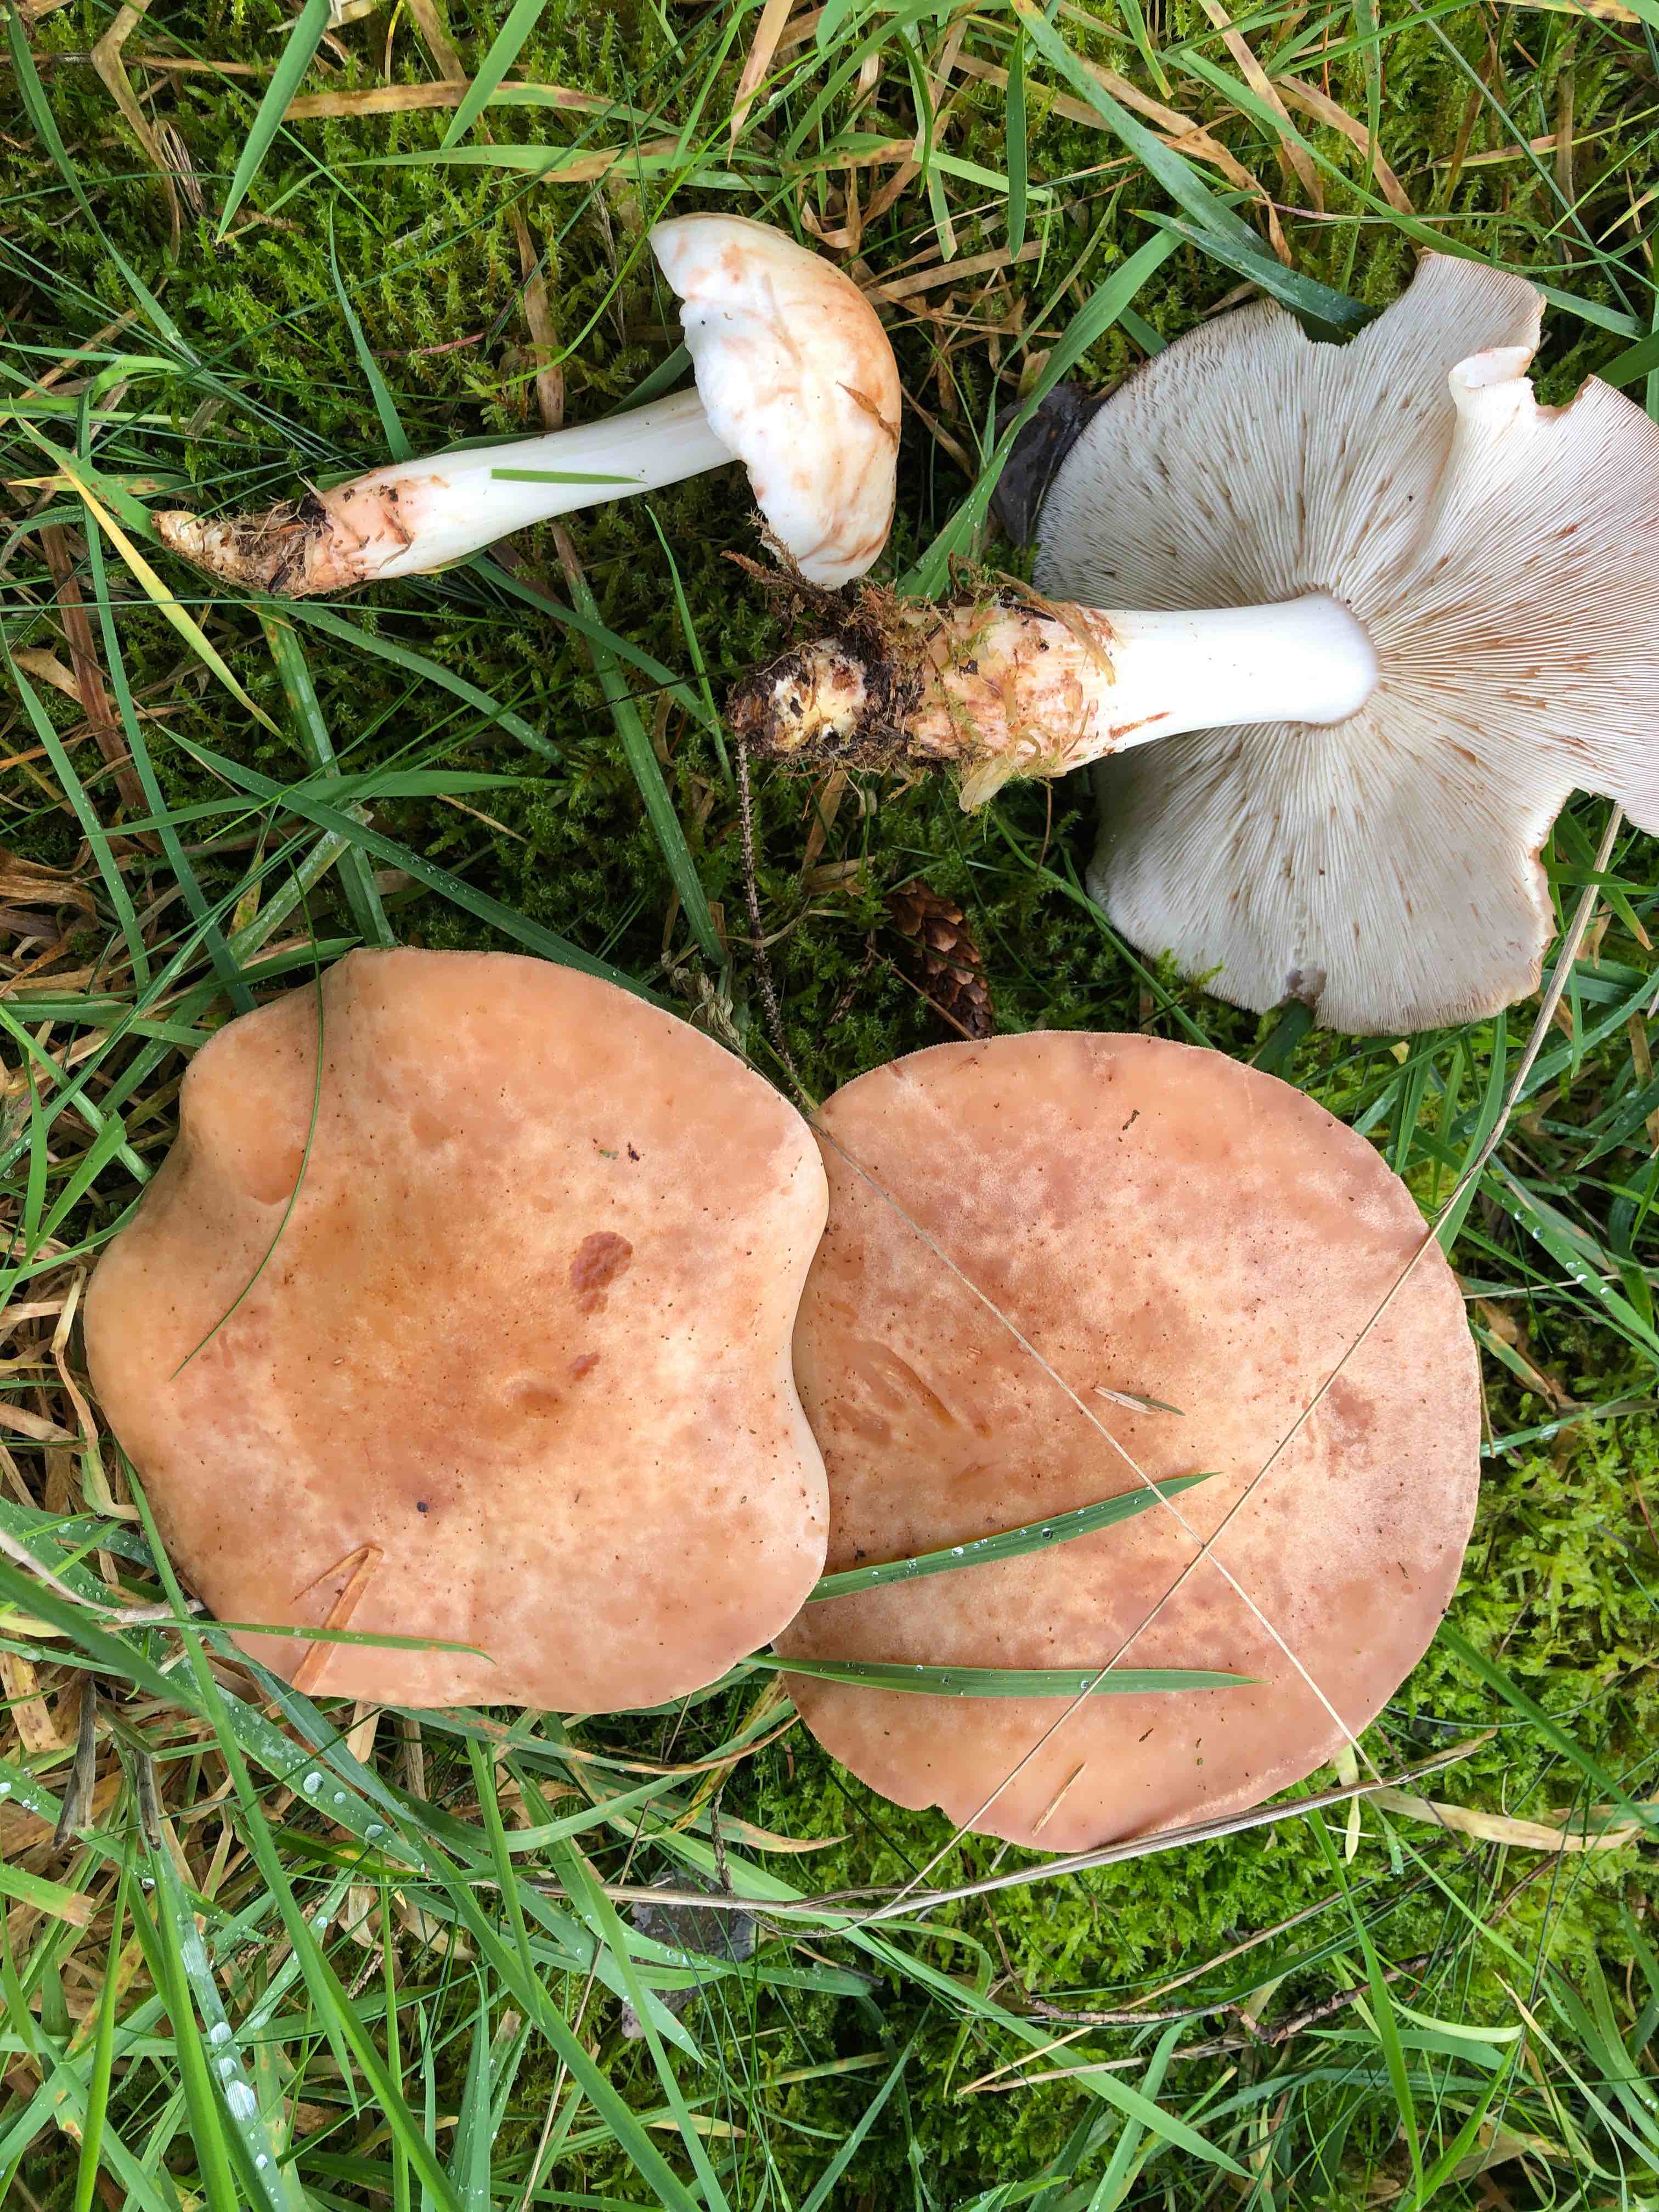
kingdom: Fungi
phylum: Basidiomycota
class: Agaricomycetes
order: Agaricales
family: Omphalotaceae
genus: Rhodocollybia
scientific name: Rhodocollybia maculata
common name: plettet fladhat
